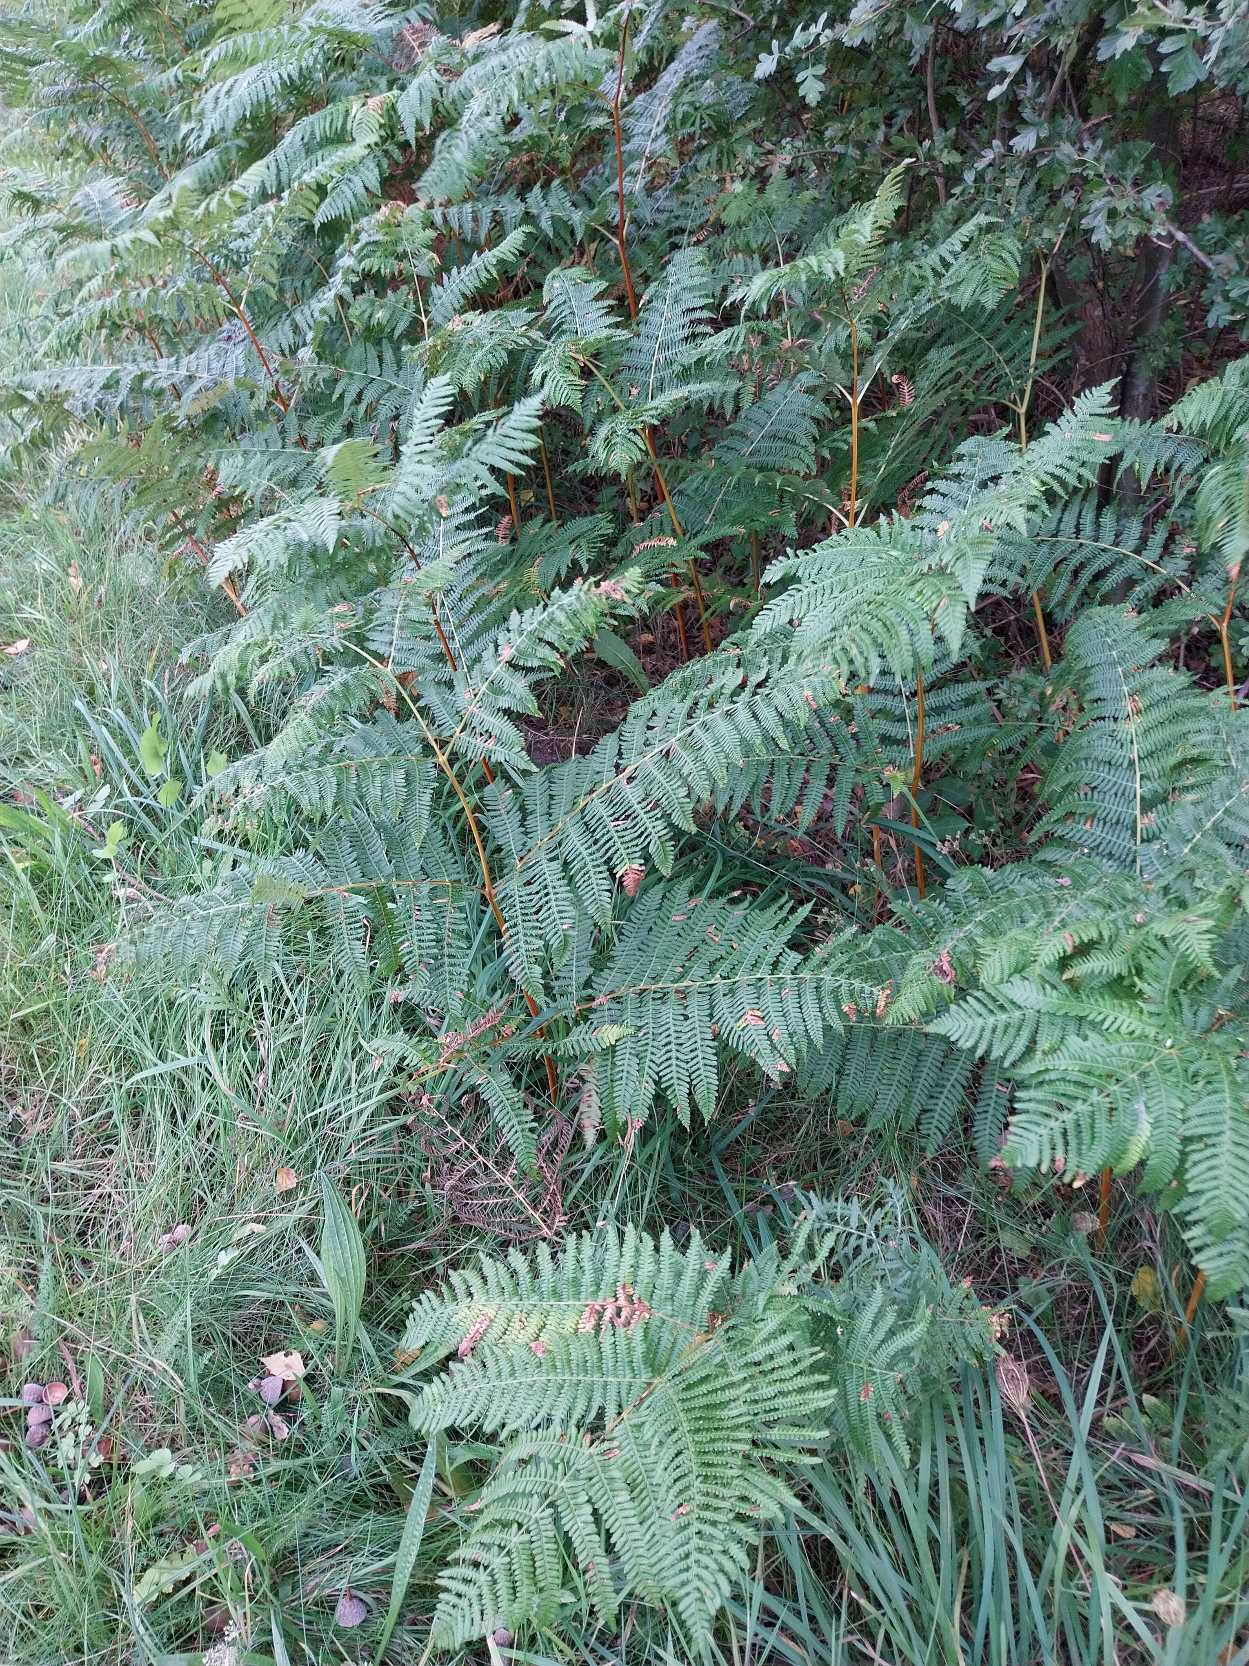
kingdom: Plantae
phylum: Tracheophyta
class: Polypodiopsida
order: Polypodiales
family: Dennstaedtiaceae
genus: Pteridium
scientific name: Pteridium aquilinum
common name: Ørnebregne
